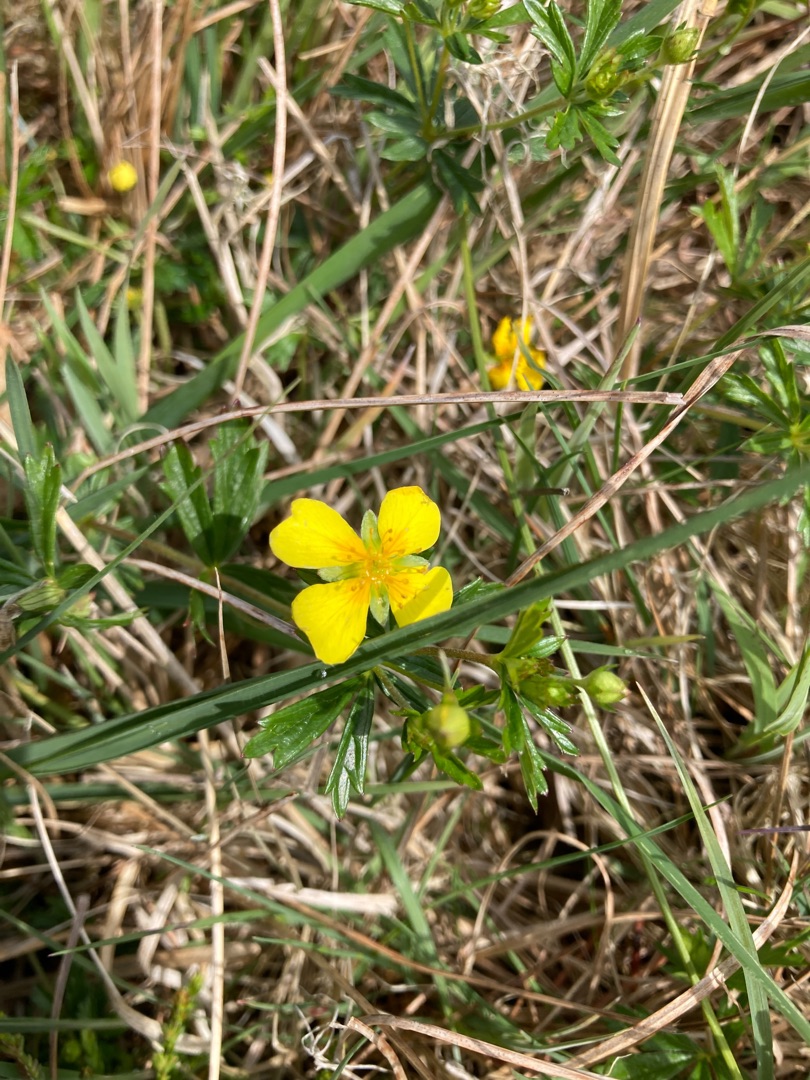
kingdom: Plantae
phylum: Tracheophyta
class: Magnoliopsida
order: Rosales
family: Rosaceae
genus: Potentilla
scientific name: Potentilla erecta
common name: Tormentil
